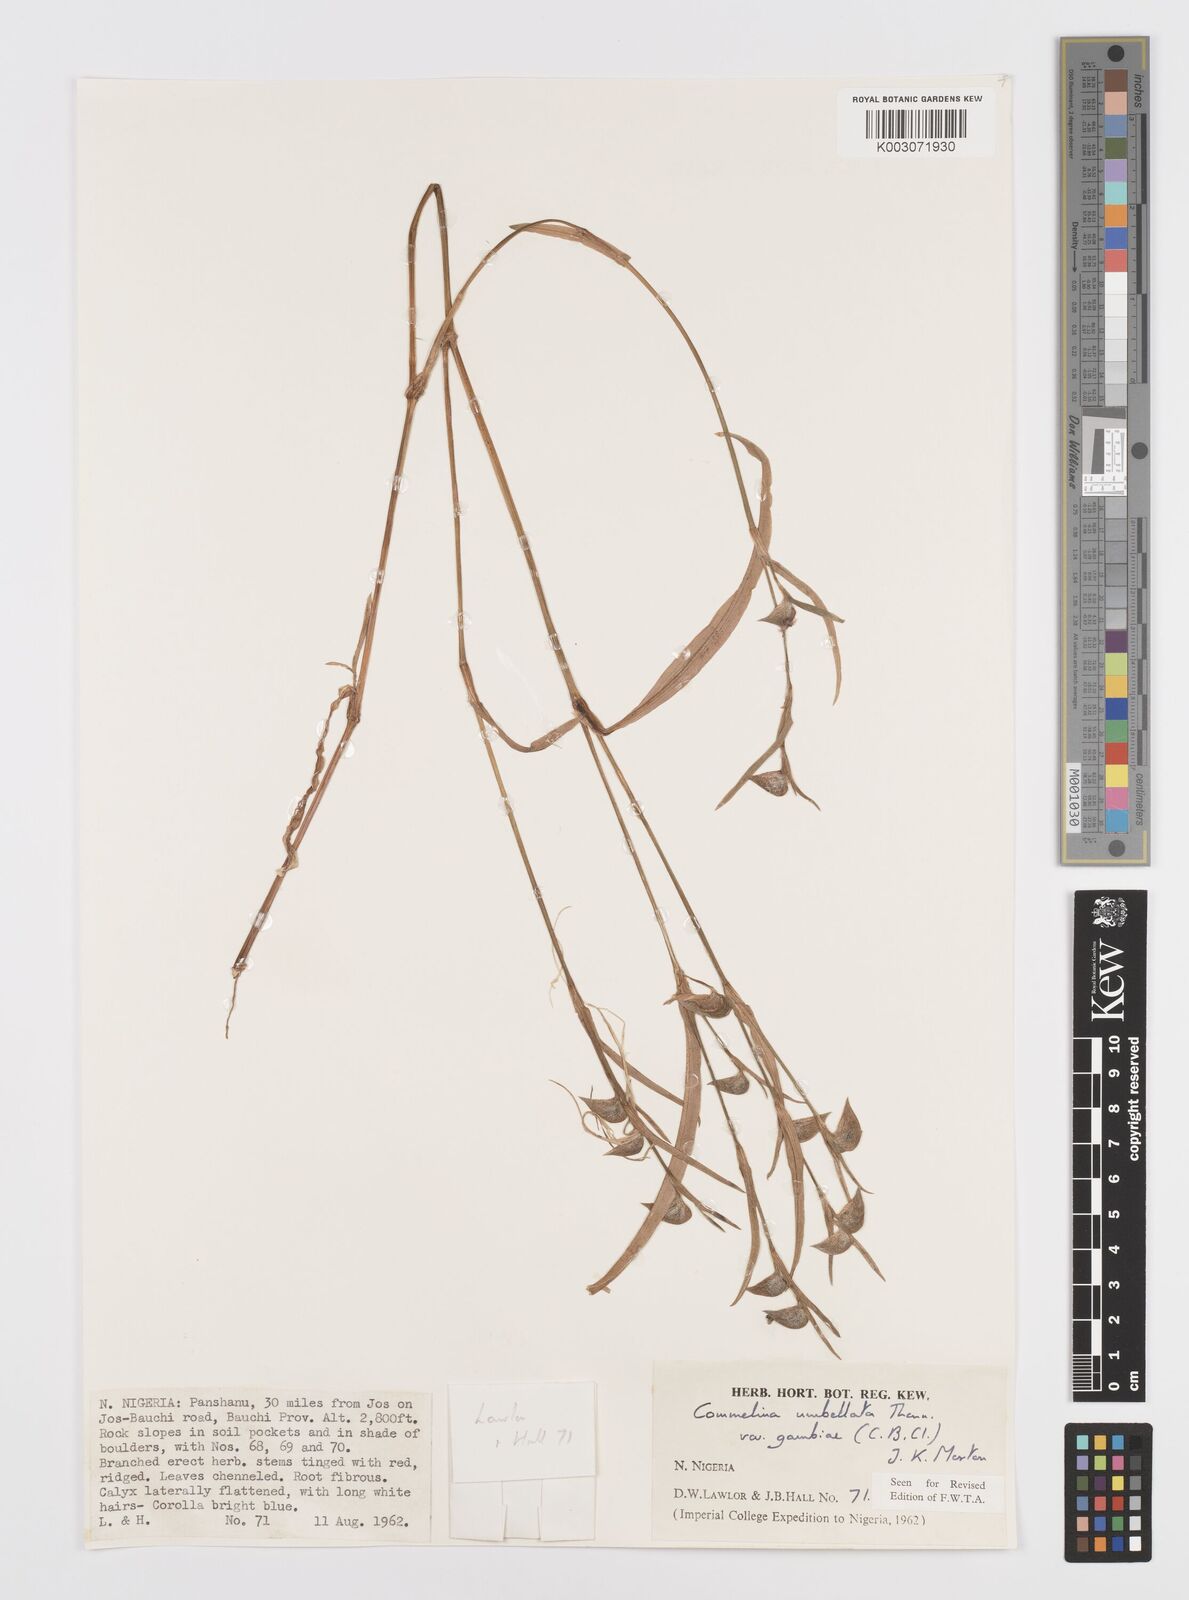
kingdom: Plantae
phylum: Tracheophyta
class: Liliopsida
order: Commelinales
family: Commelinaceae
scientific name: Commelinaceae
